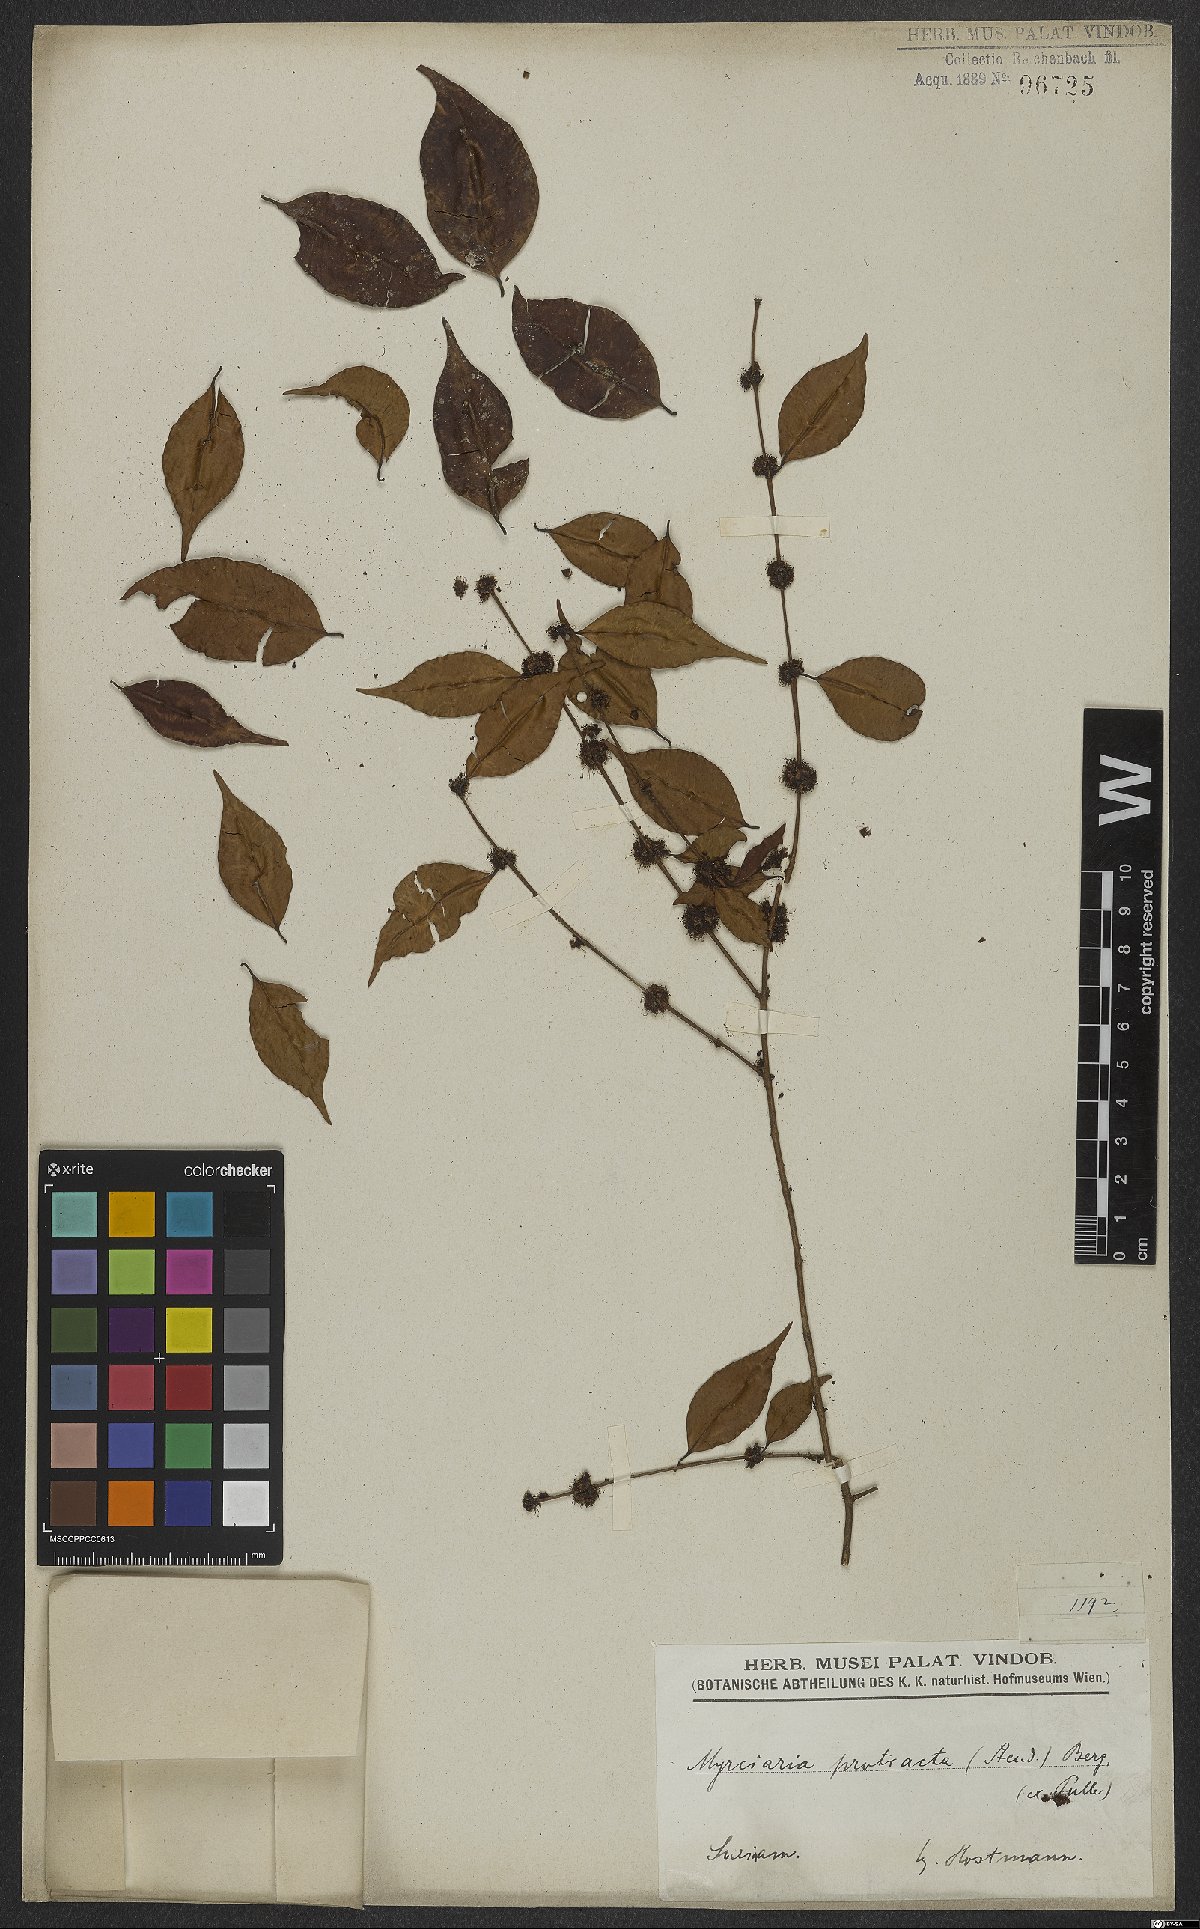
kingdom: Plantae
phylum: Tracheophyta
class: Magnoliopsida
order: Myrtales
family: Myrtaceae
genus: Myrciaria
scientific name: Myrciaria floribunda
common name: Guavaberry
